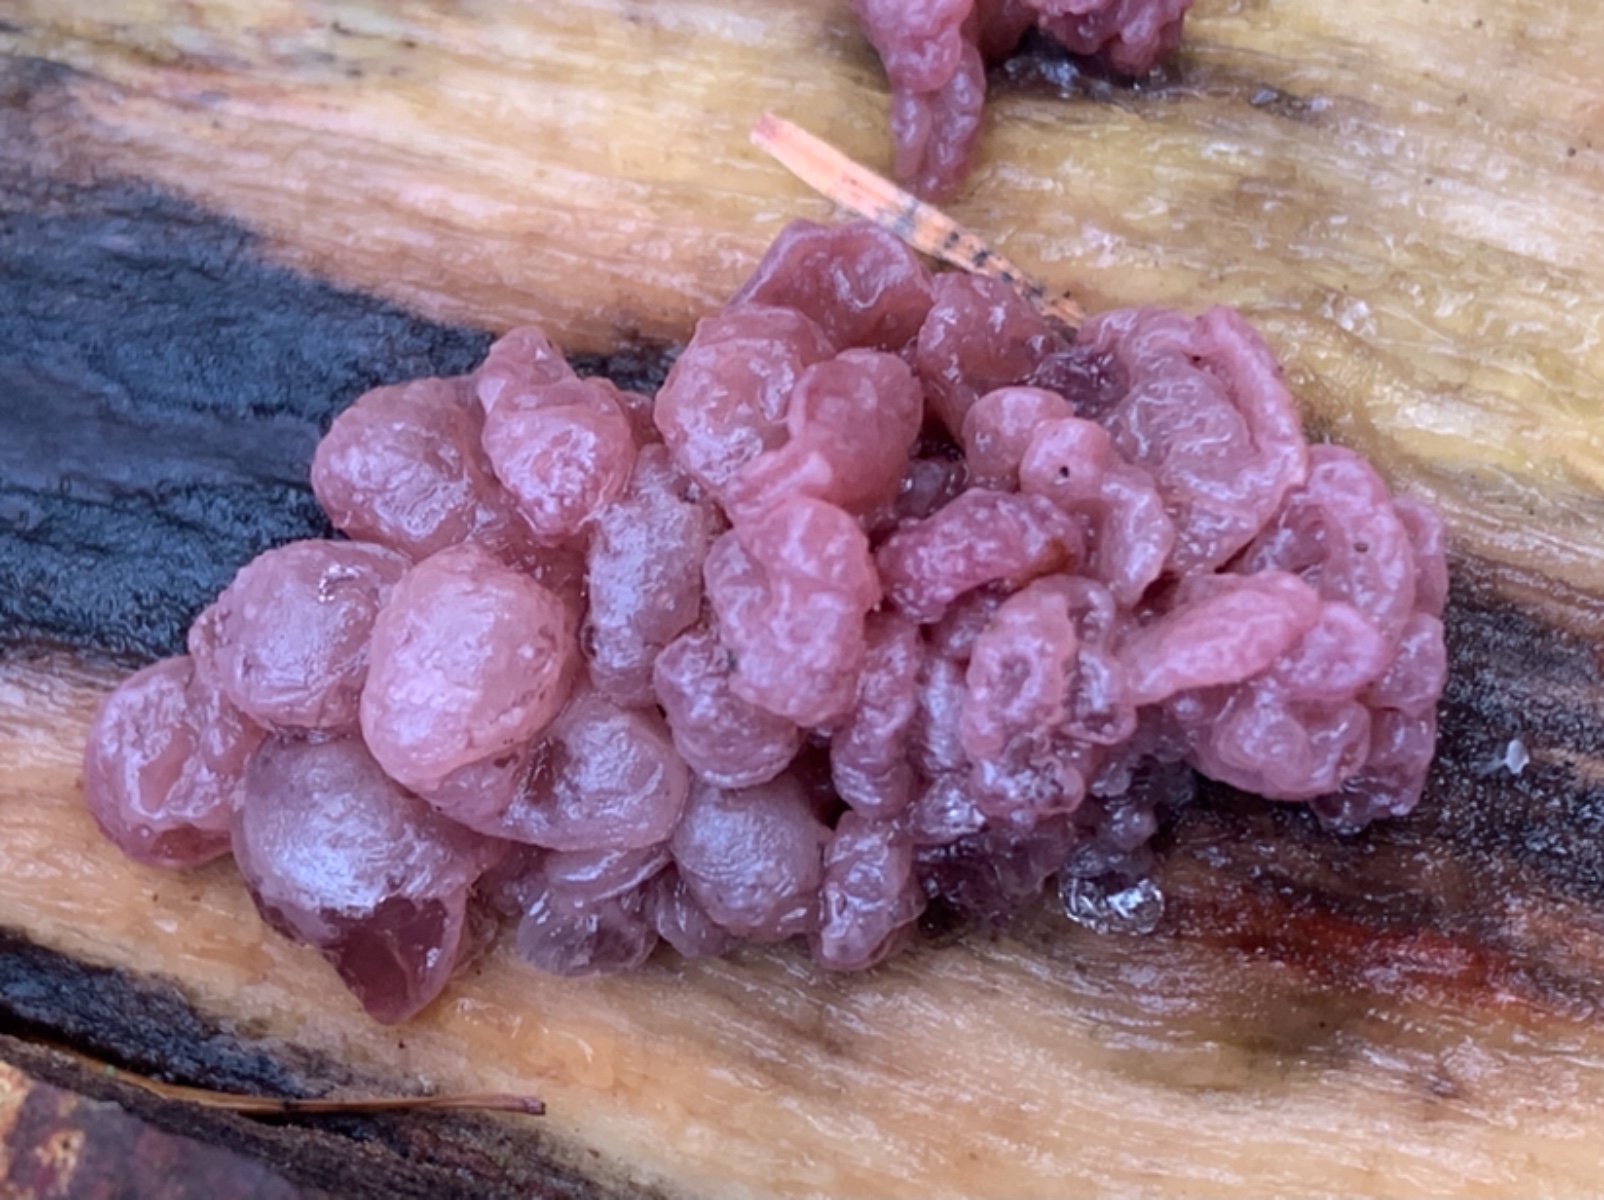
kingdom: Fungi
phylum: Ascomycota
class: Leotiomycetes
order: Helotiales
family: Gelatinodiscaceae
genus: Ascocoryne
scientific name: Ascocoryne sarcoides
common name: rødlilla sejskive
